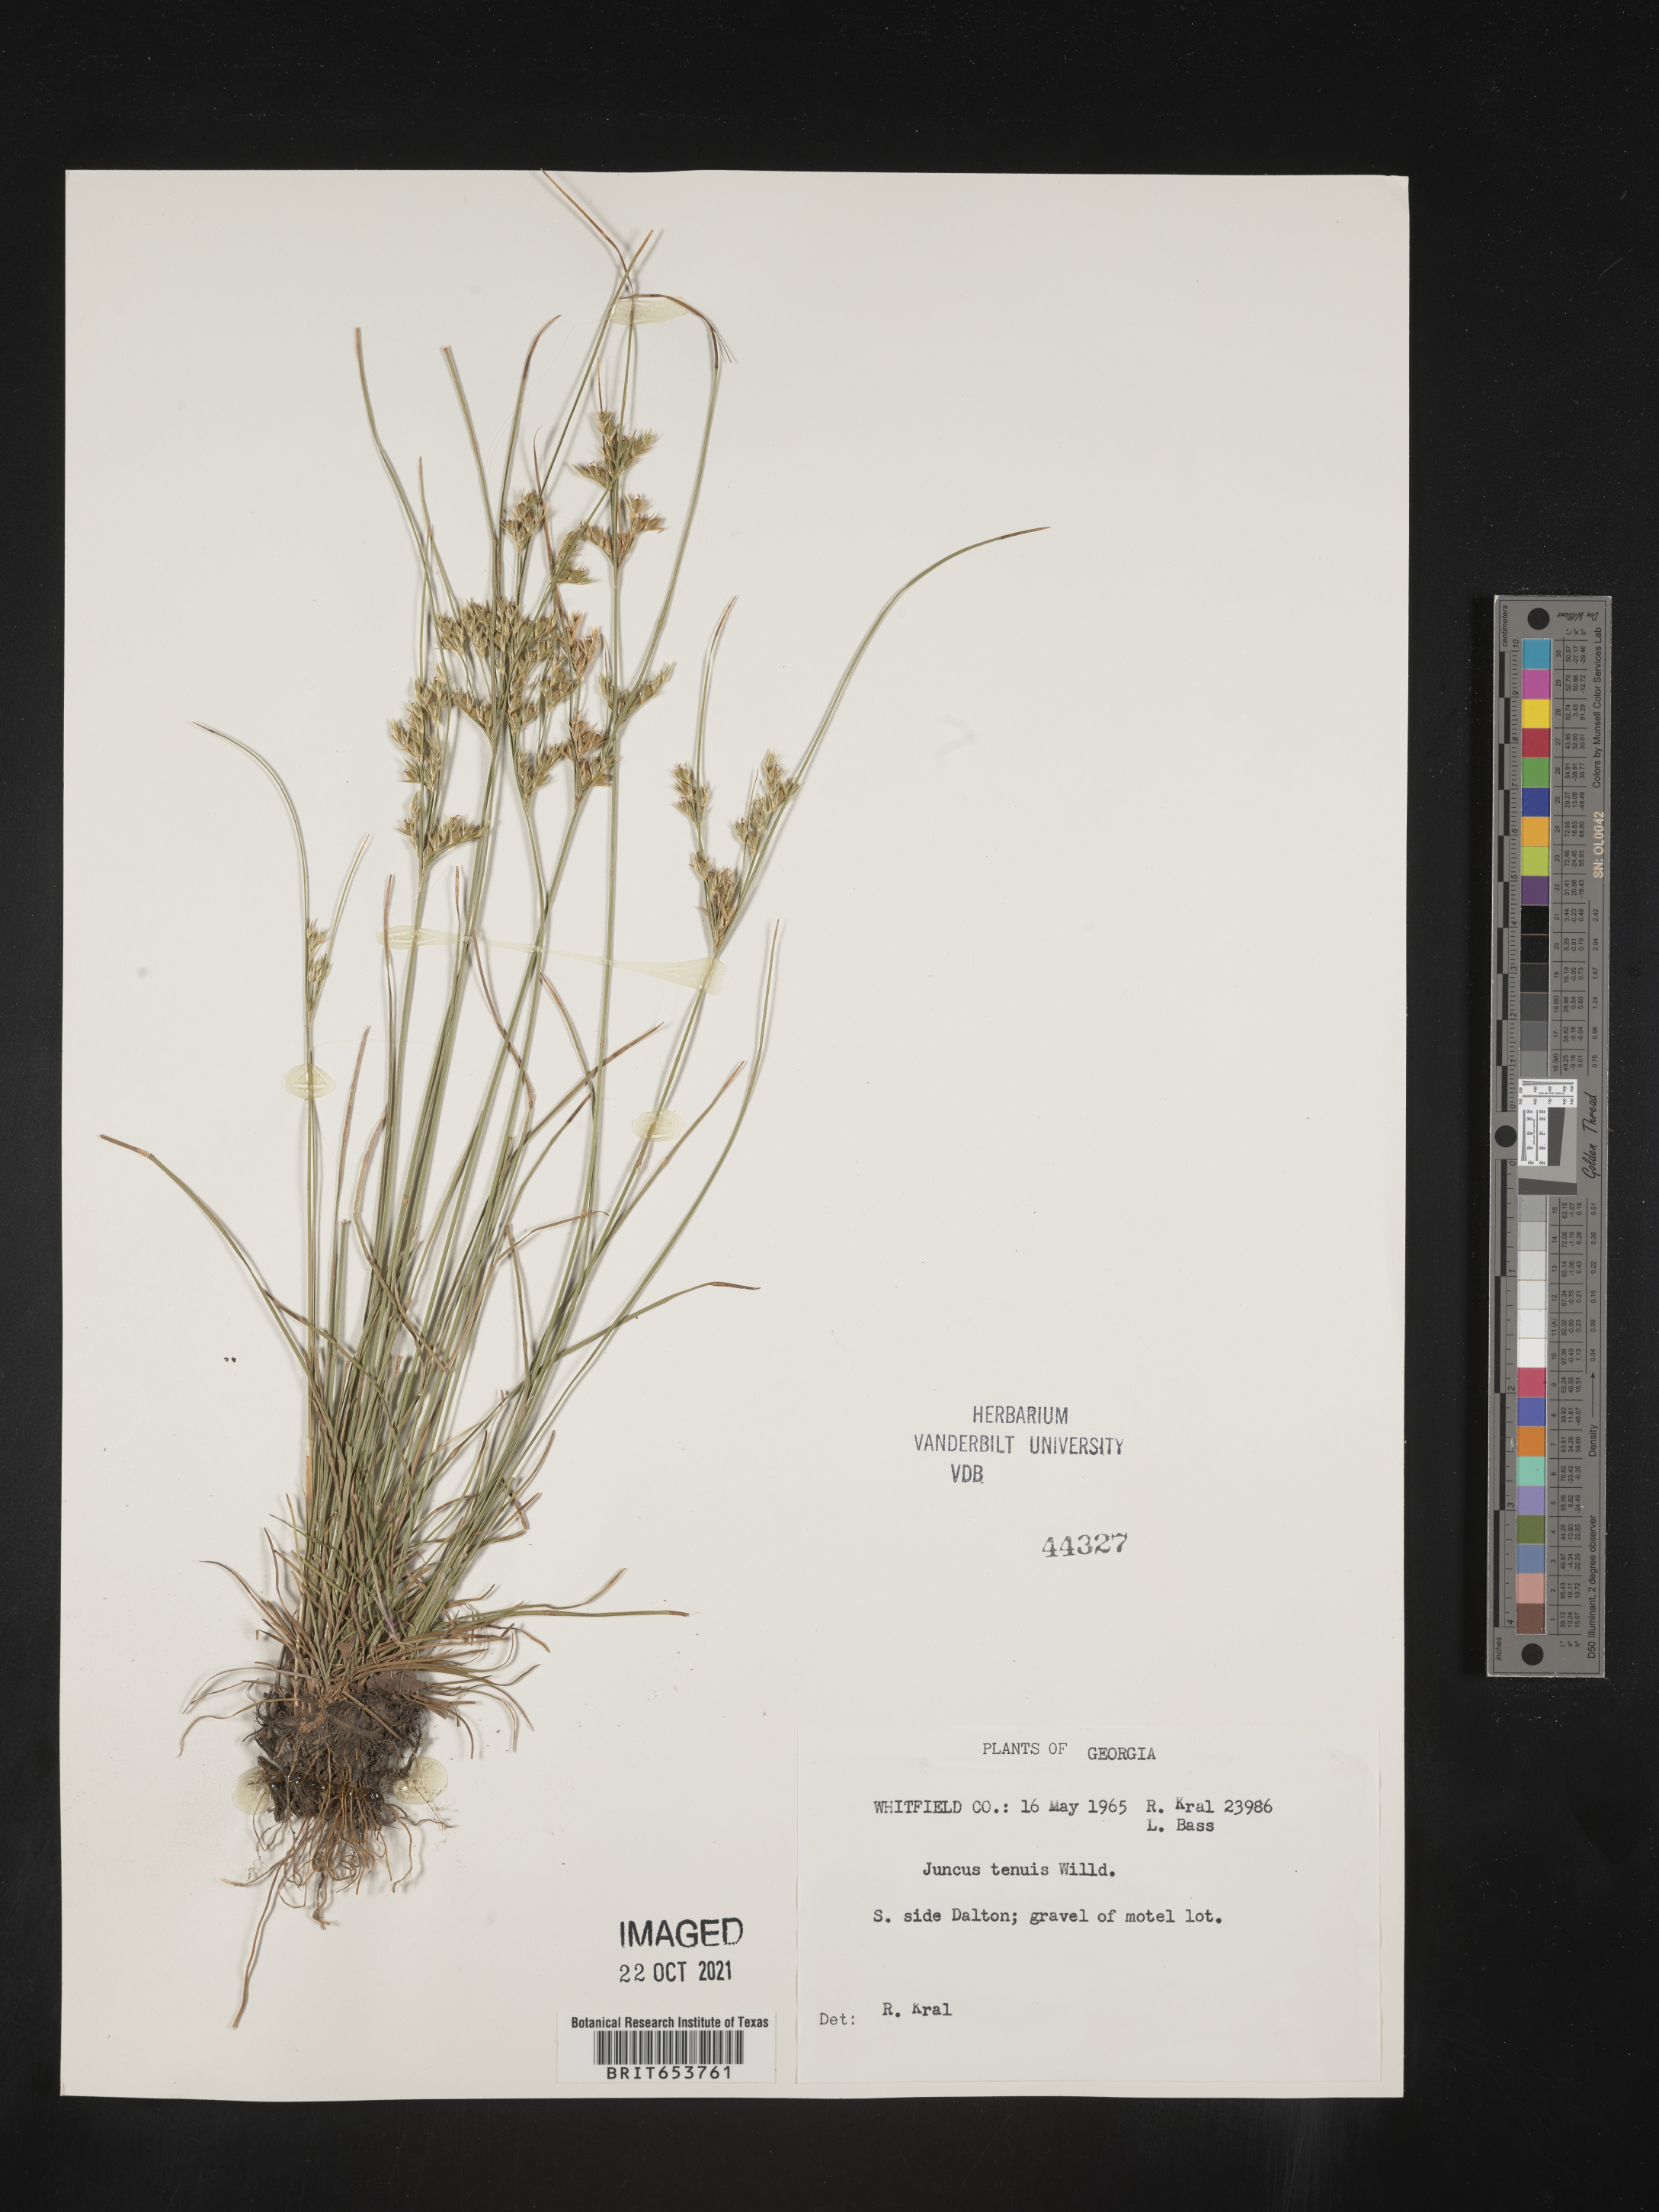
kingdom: Plantae
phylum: Tracheophyta
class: Liliopsida
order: Poales
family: Juncaceae
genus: Juncus
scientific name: Juncus tenuis
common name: Slender rush
